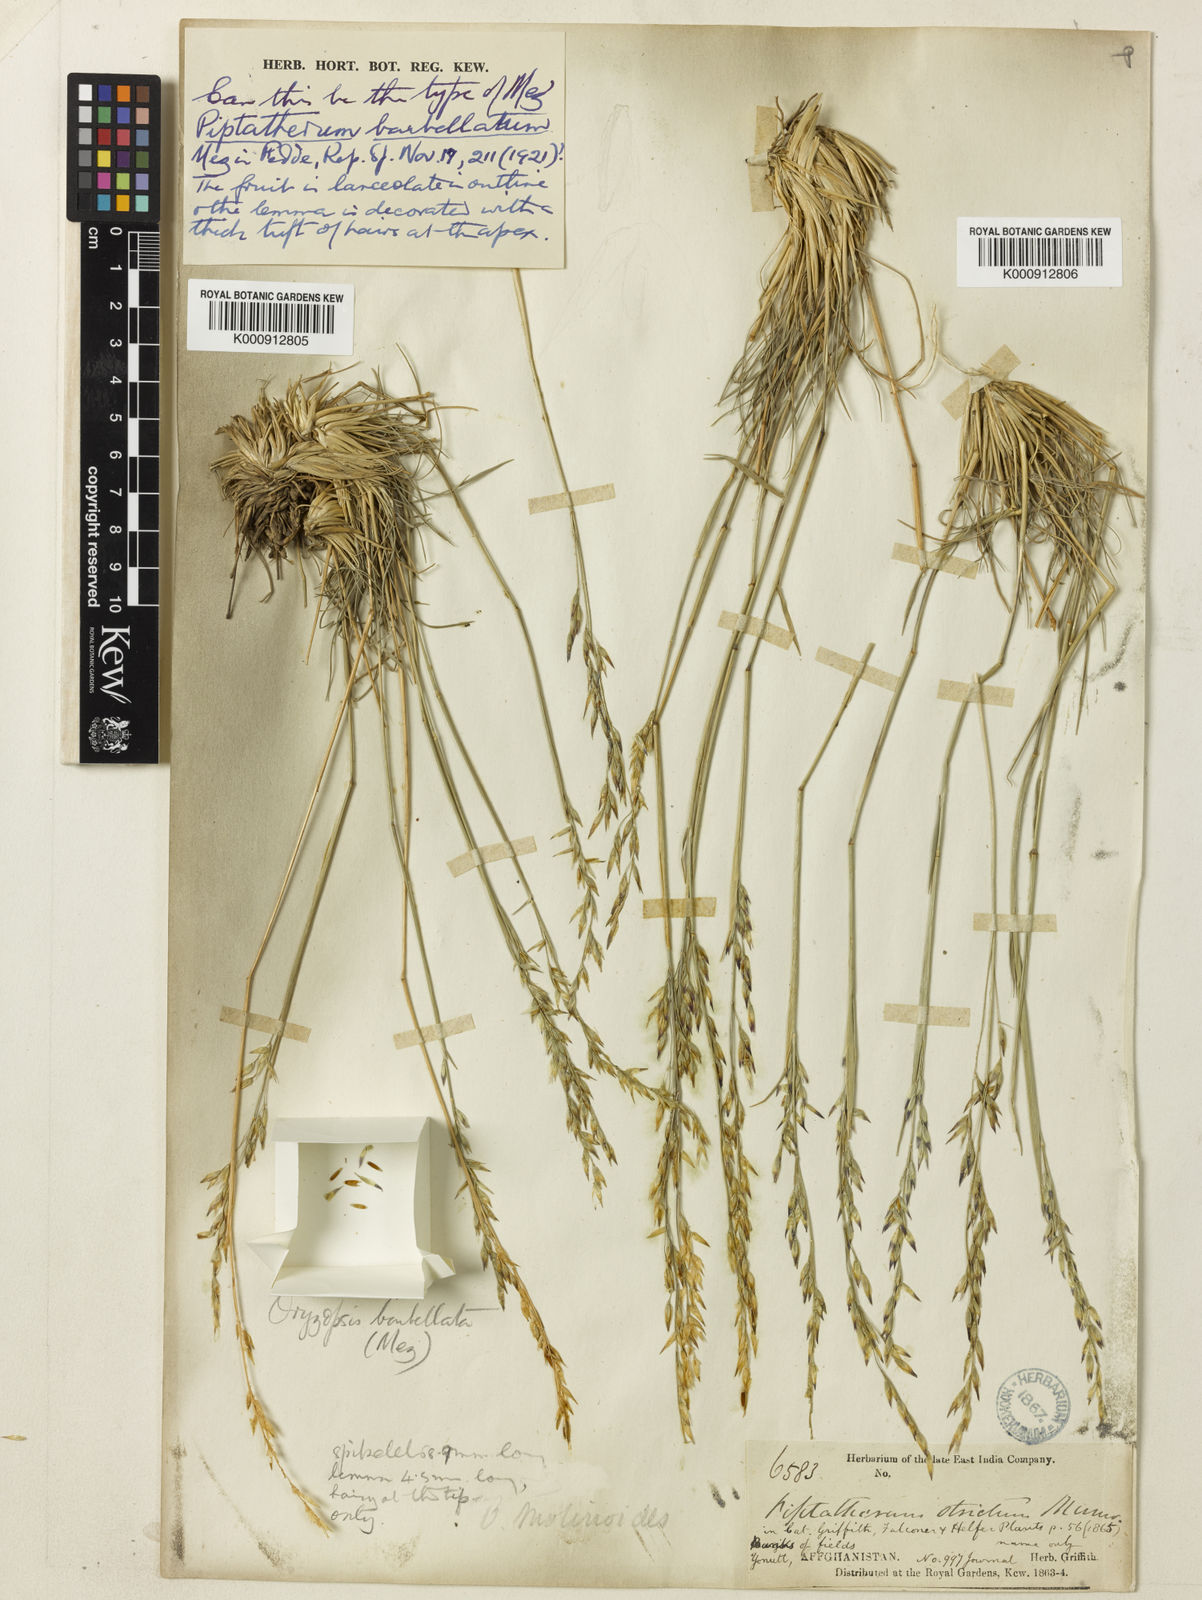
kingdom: Plantae
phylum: Tracheophyta
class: Liliopsida
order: Poales
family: Poaceae
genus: Piptatherum
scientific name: Piptatherum barbellatum
